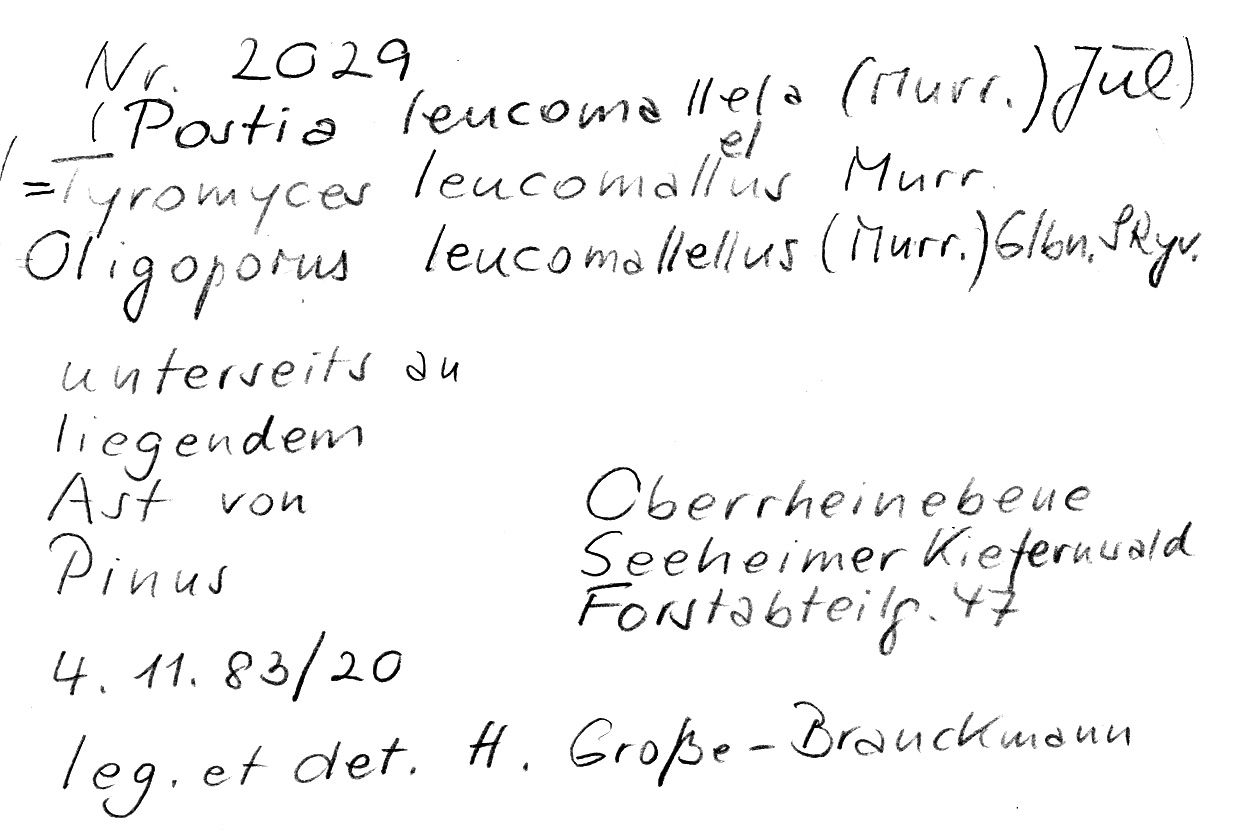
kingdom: Plantae
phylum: Tracheophyta
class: Pinopsida
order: Pinales
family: Pinaceae
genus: Pinus
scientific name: Pinus
